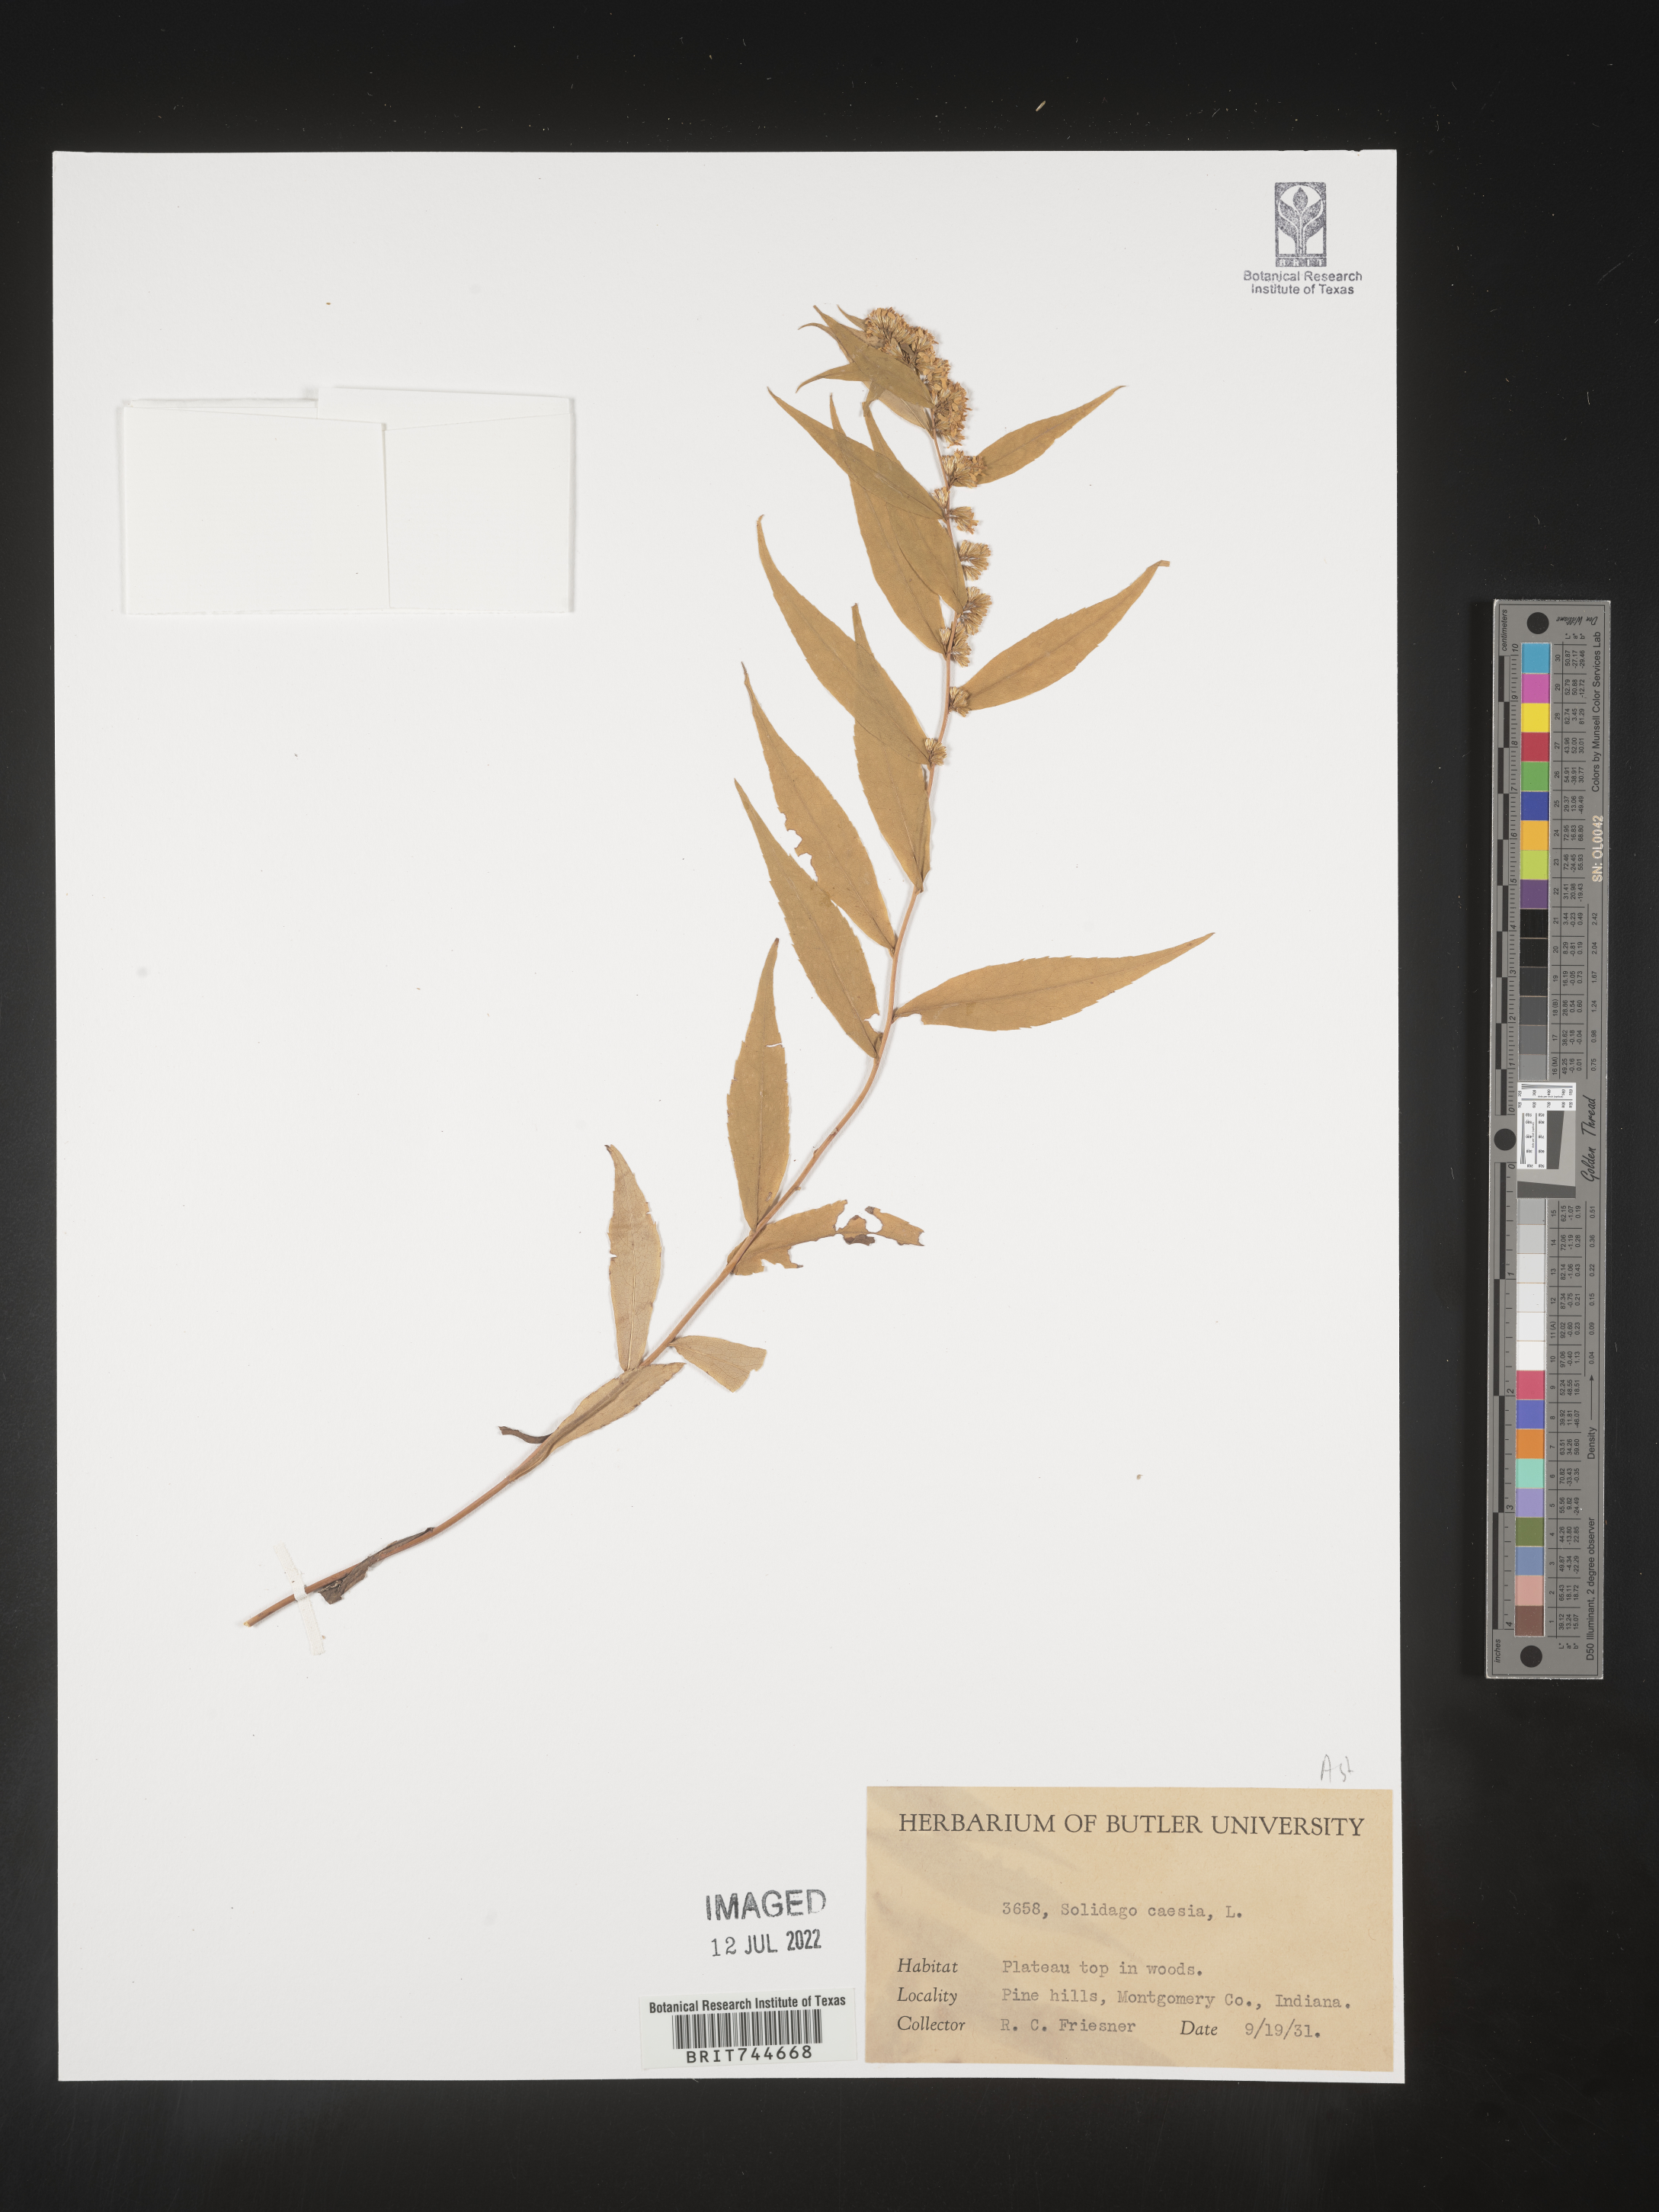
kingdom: Plantae
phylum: Tracheophyta
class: Magnoliopsida
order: Asterales
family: Asteraceae
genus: Solidago
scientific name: Solidago caesia
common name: Woodland goldenrod
